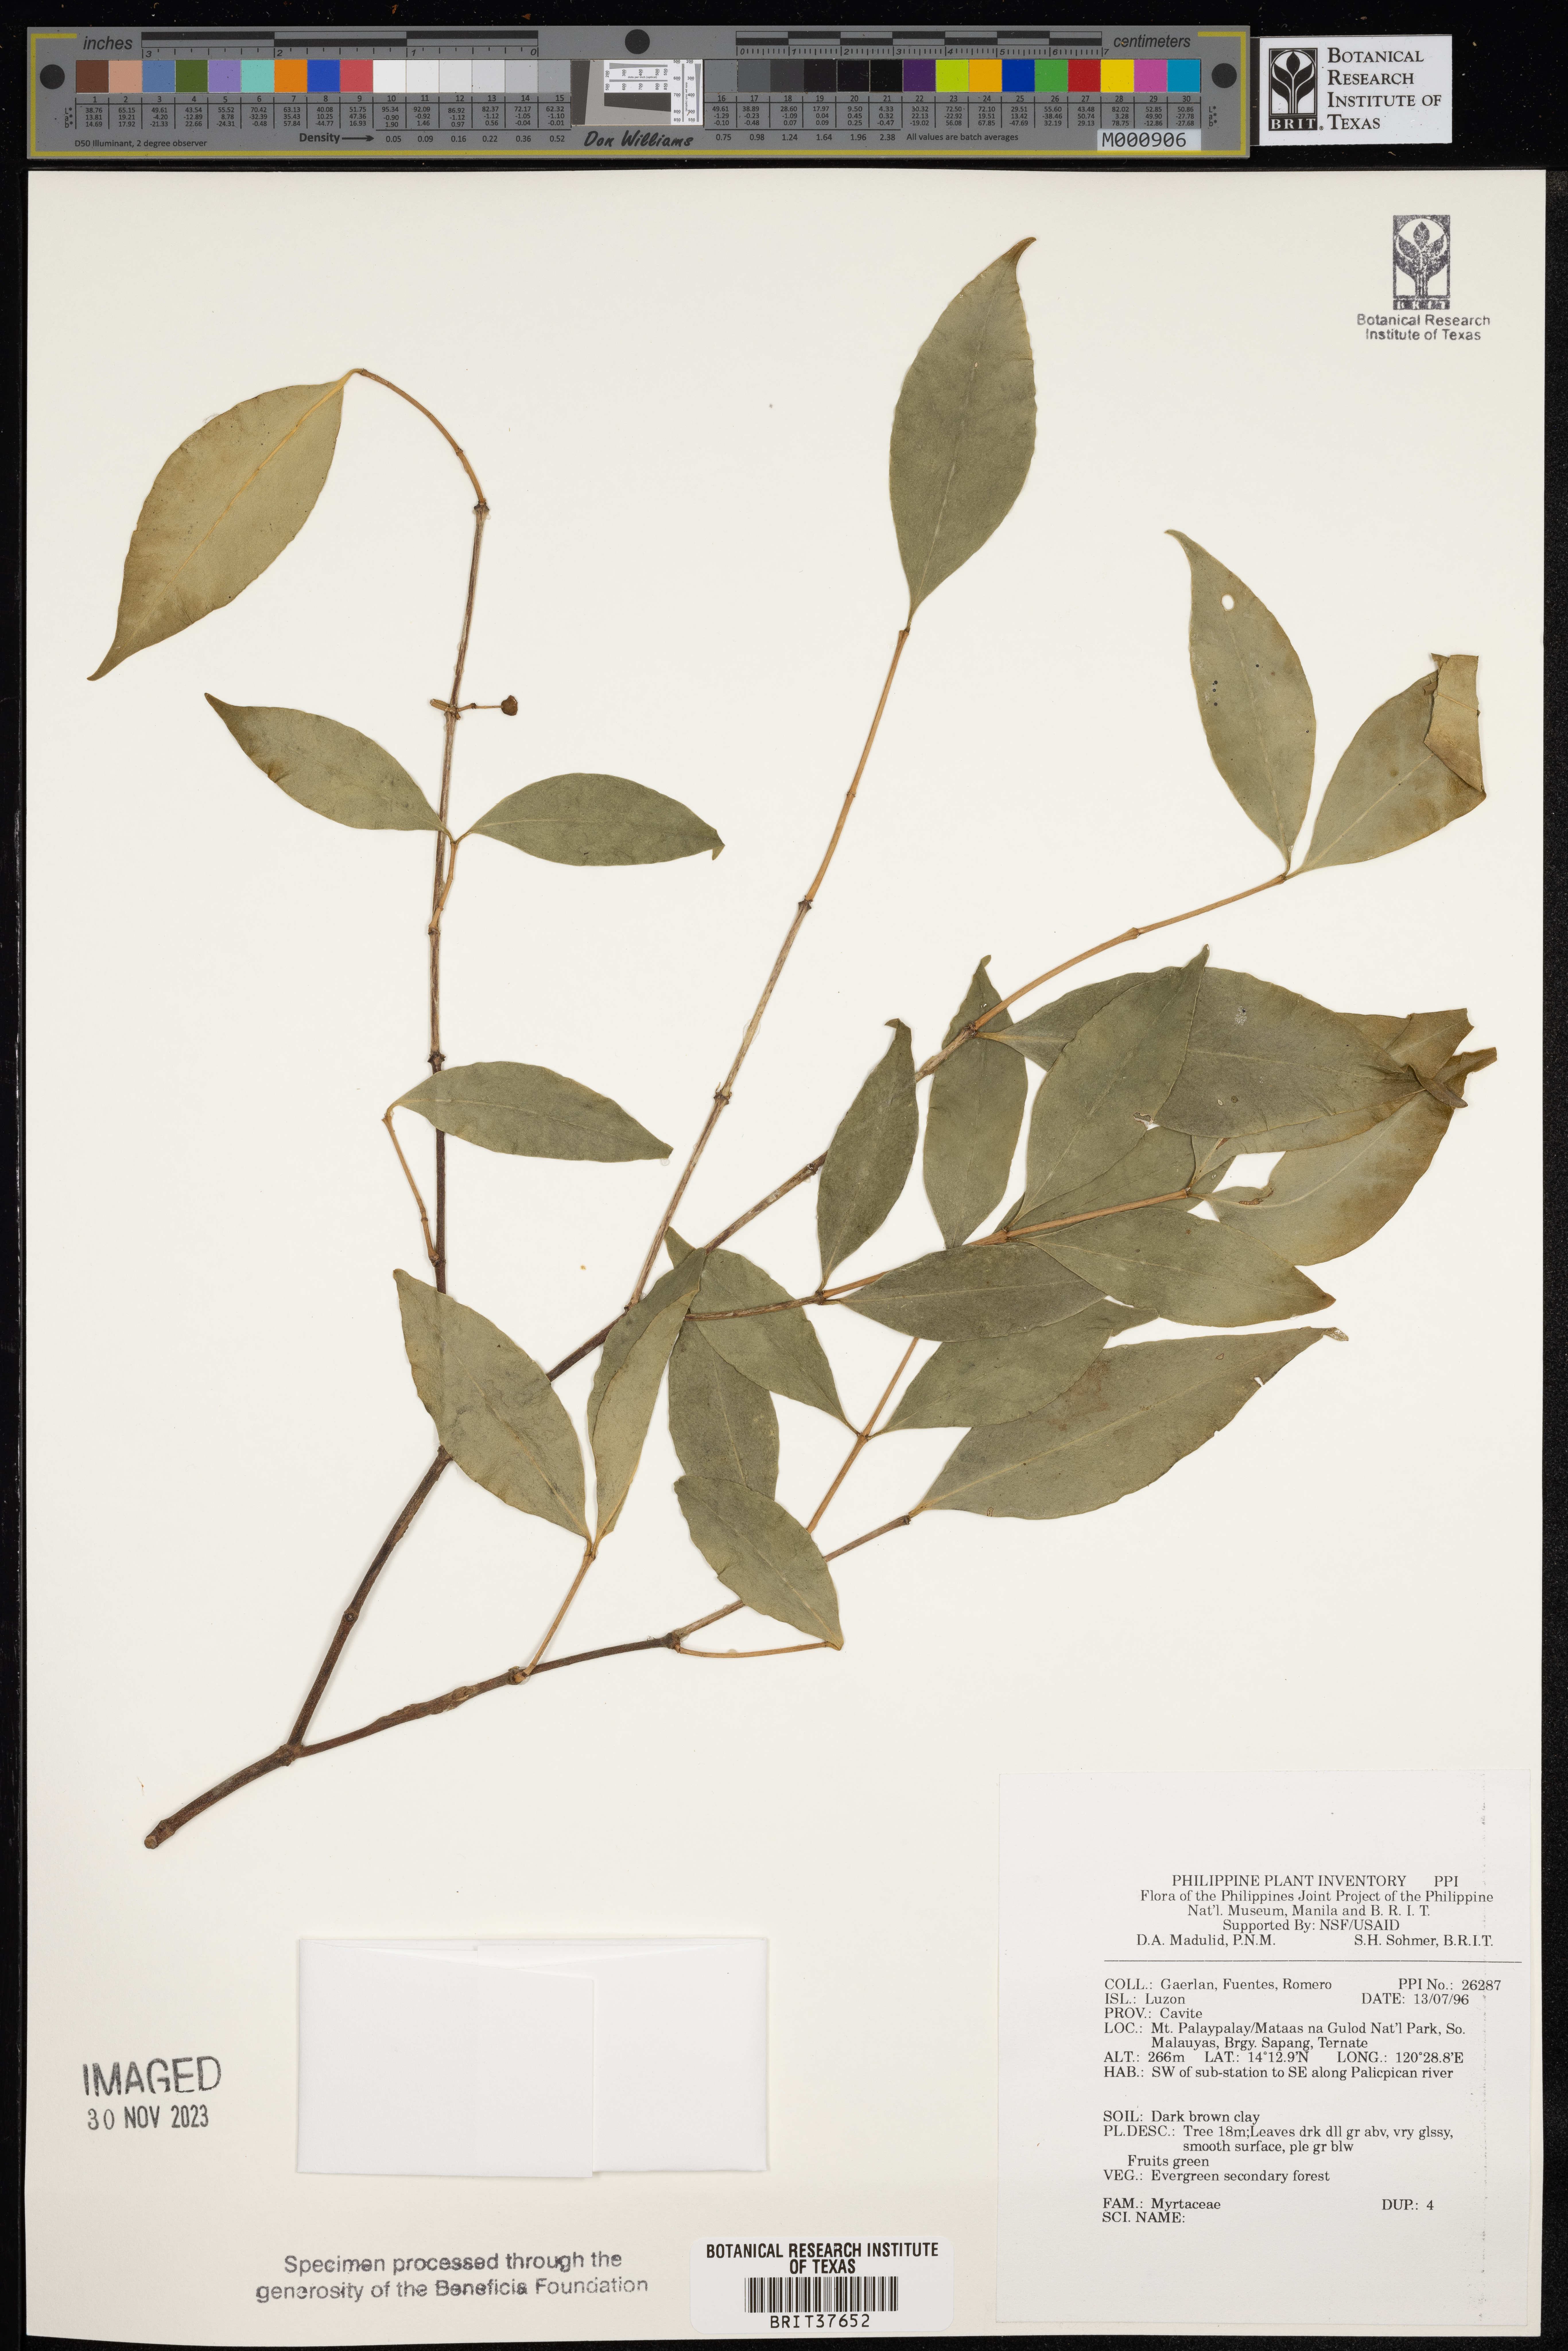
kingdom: Plantae
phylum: Tracheophyta
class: Magnoliopsida
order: Myrtales
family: Myrtaceae
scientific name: Myrtaceae
